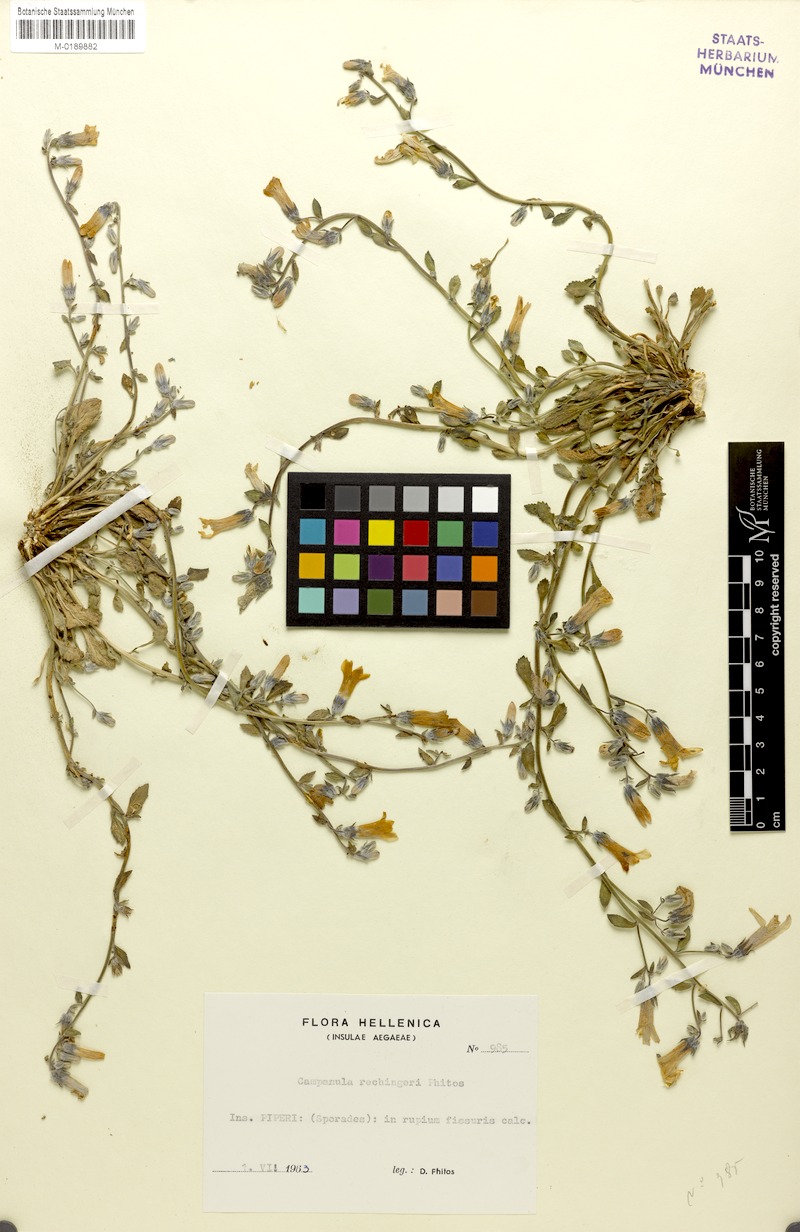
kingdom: Plantae
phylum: Tracheophyta
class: Magnoliopsida
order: Asterales
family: Campanulaceae
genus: Campanula
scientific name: Campanula rechingeri
